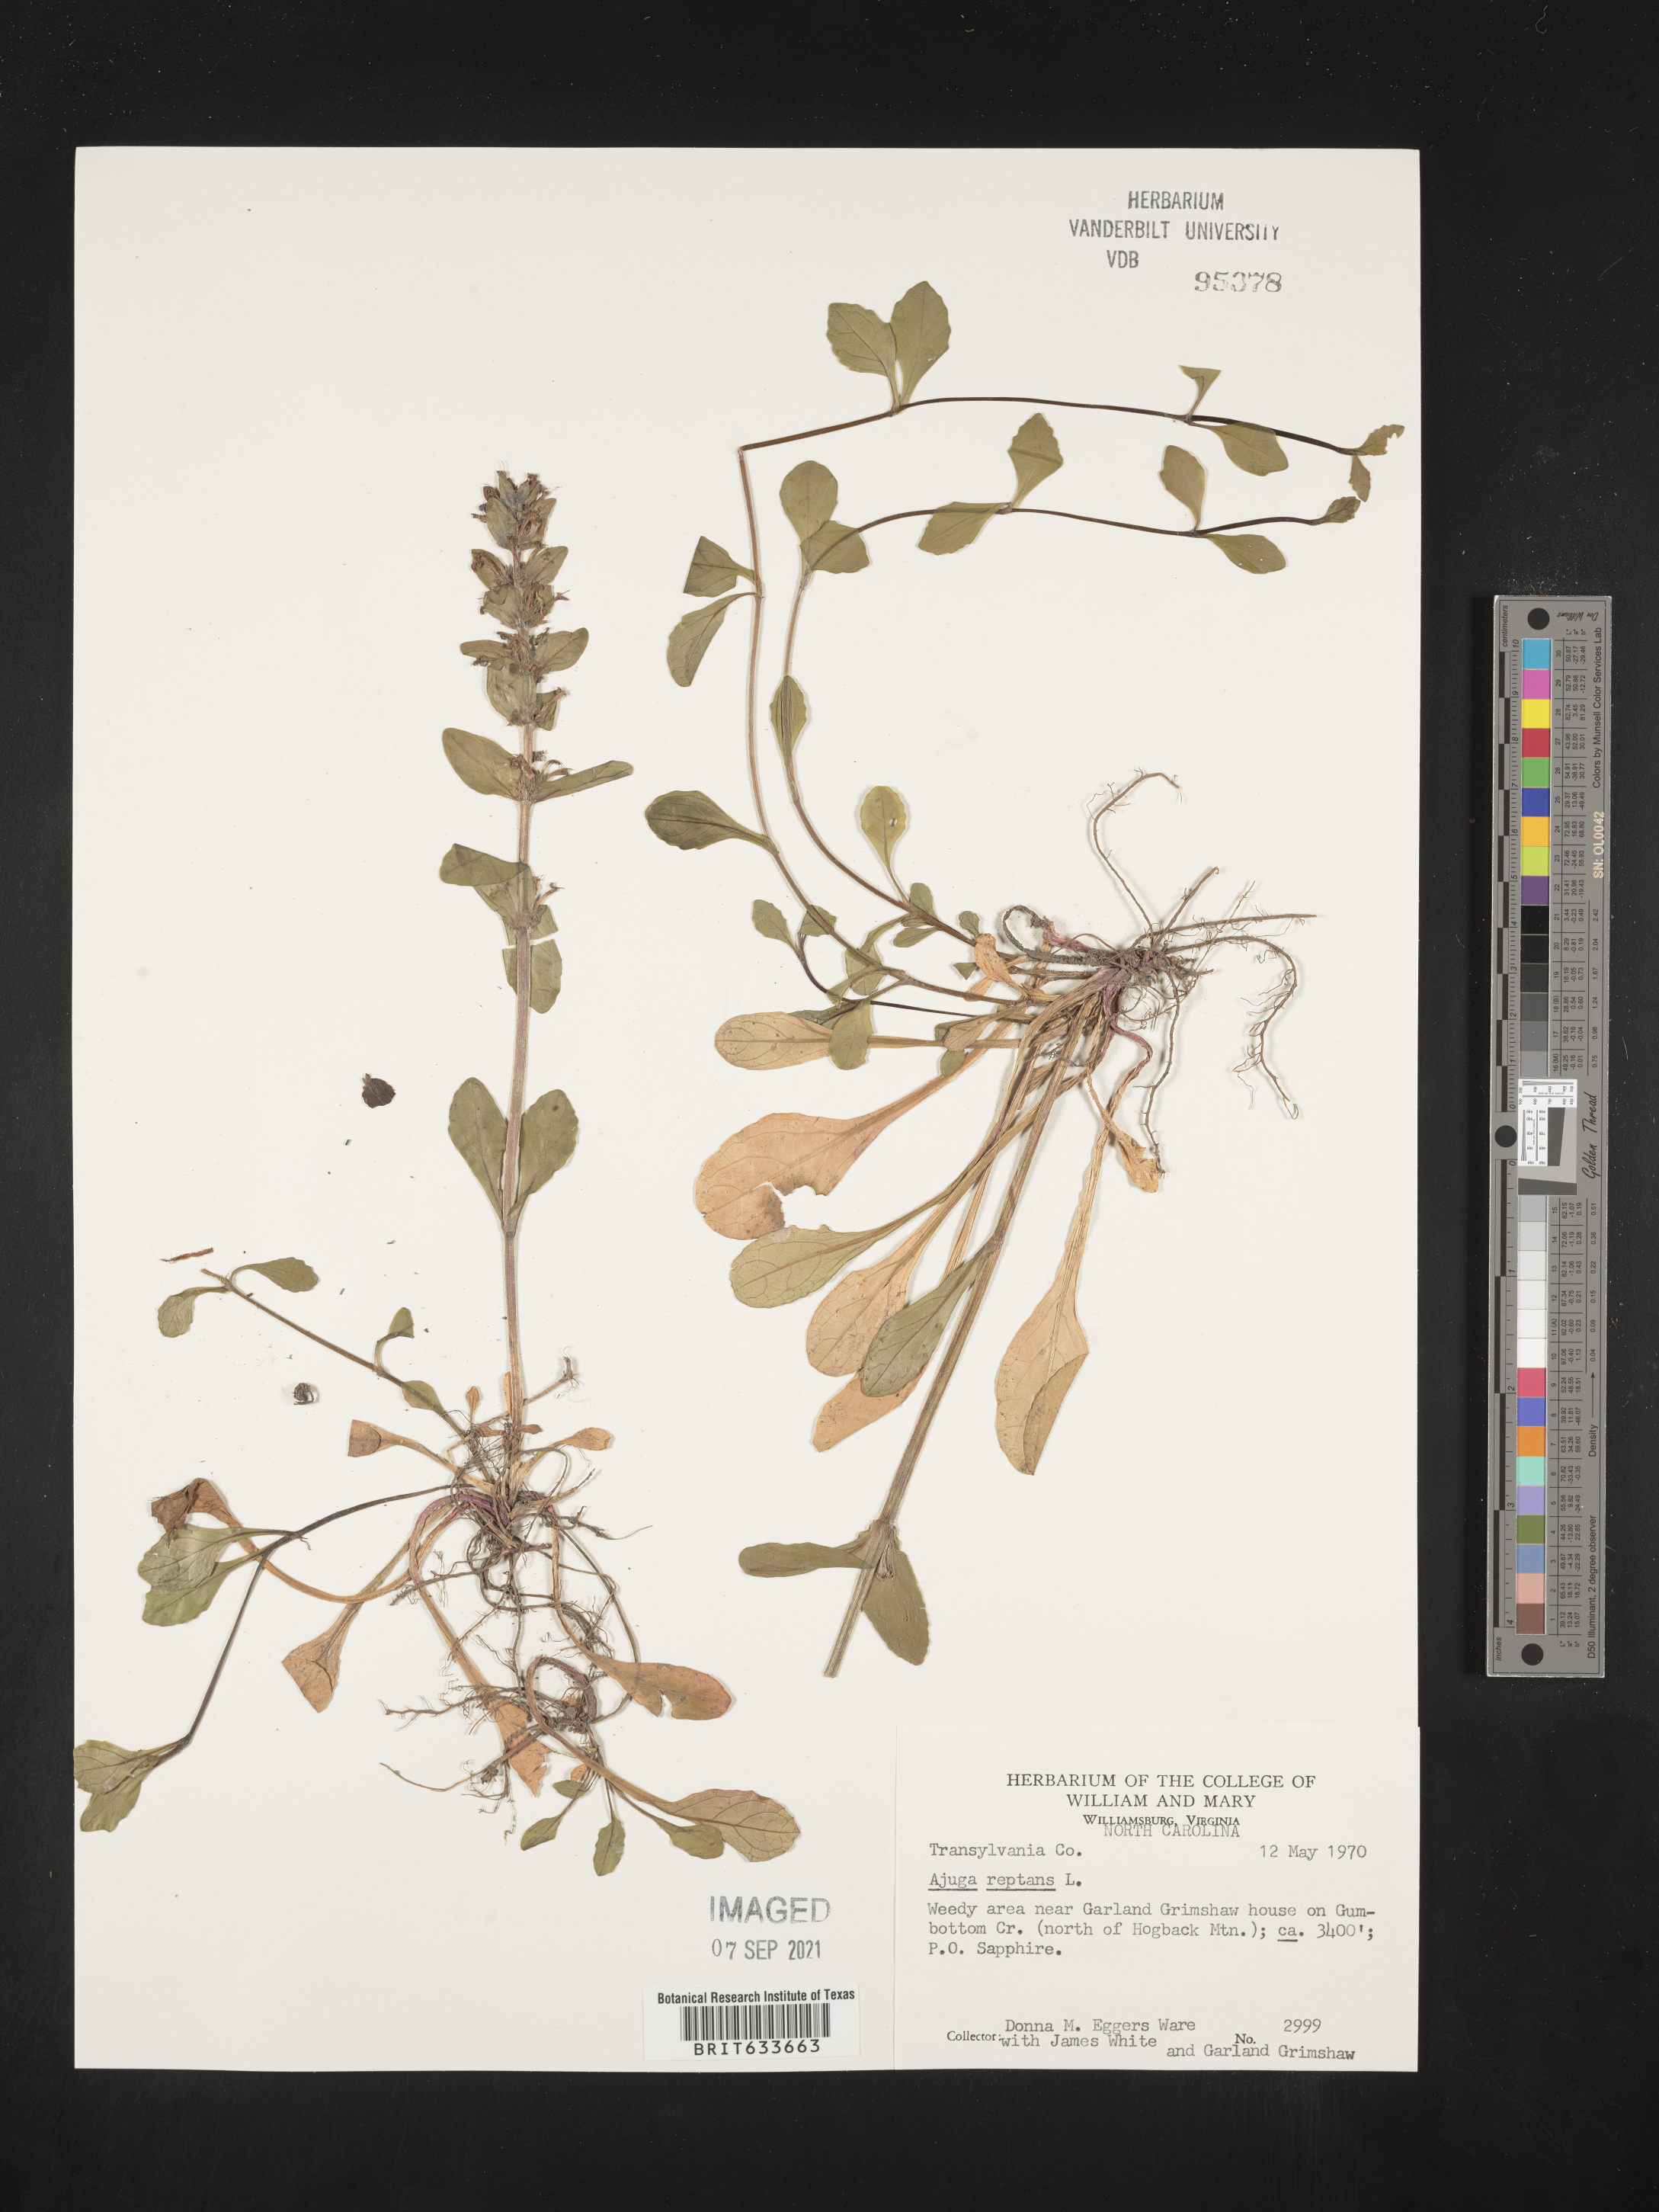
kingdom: Plantae
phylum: Tracheophyta
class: Magnoliopsida
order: Lamiales
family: Lamiaceae
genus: Ajuga
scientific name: Ajuga
